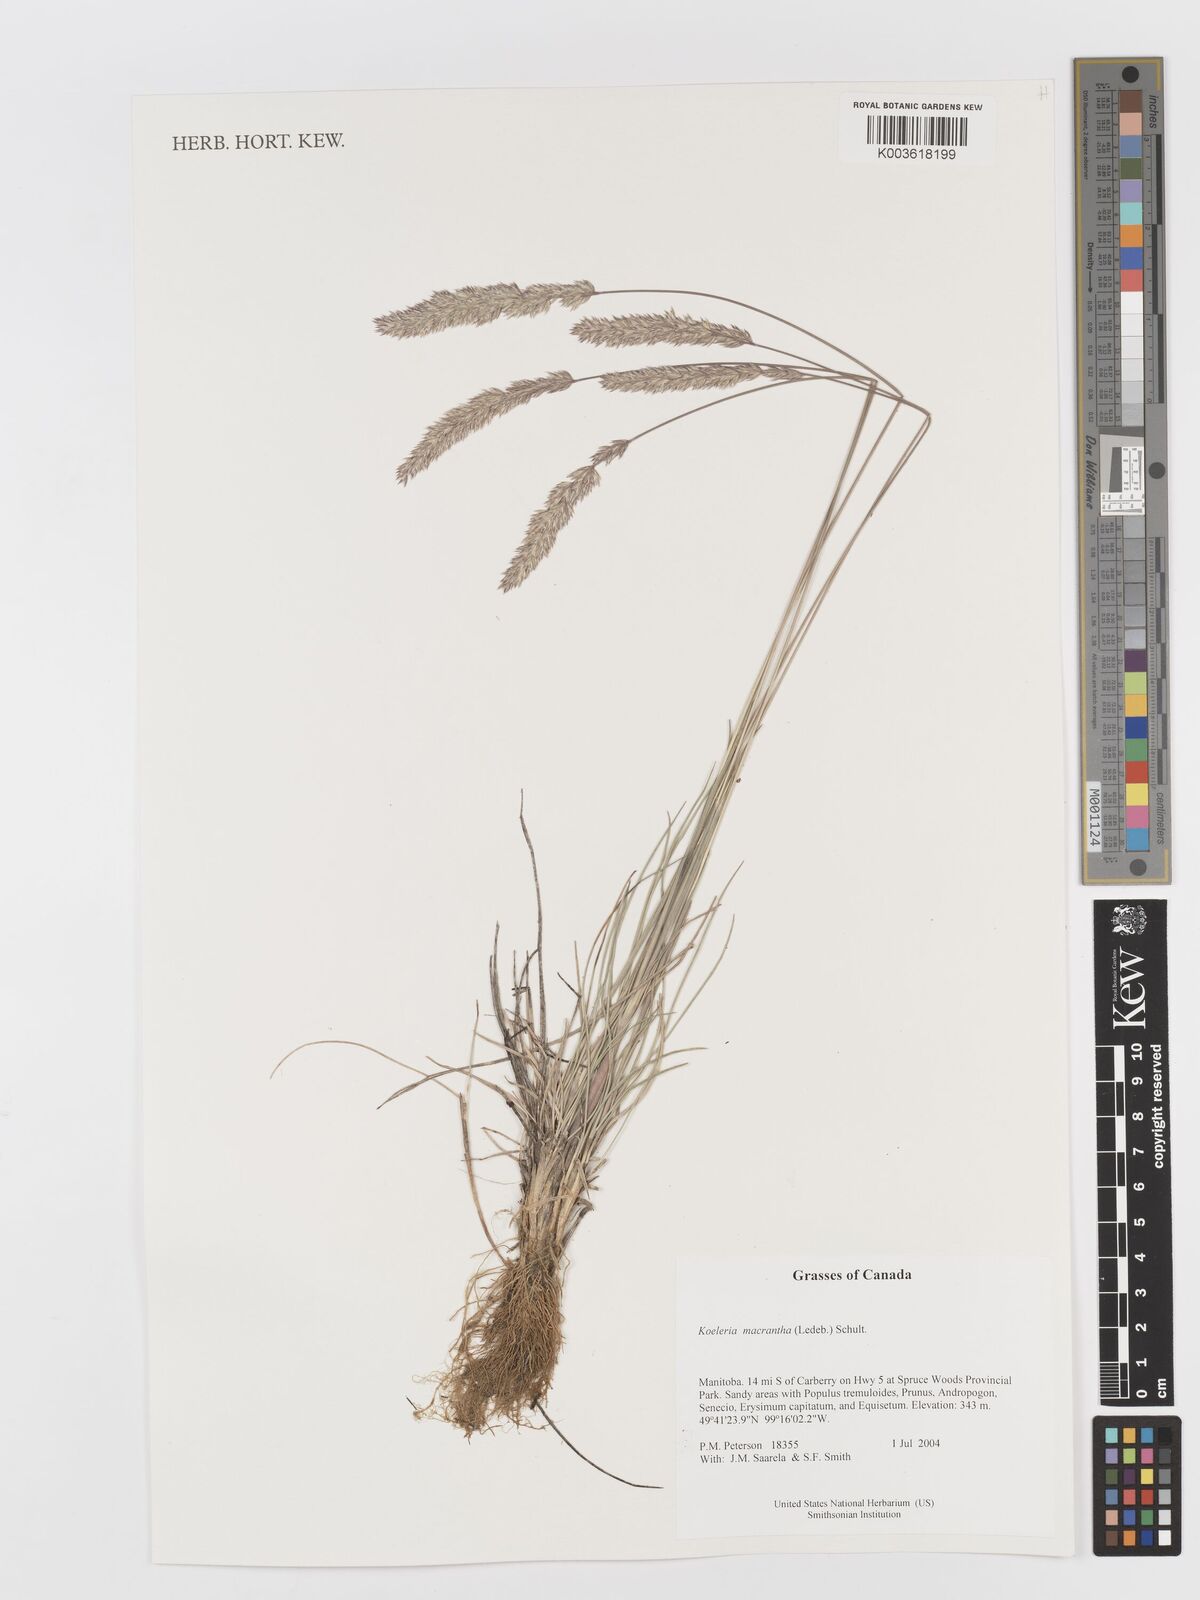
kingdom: Plantae
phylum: Tracheophyta
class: Liliopsida
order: Poales
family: Poaceae
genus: Koeleria
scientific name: Koeleria
